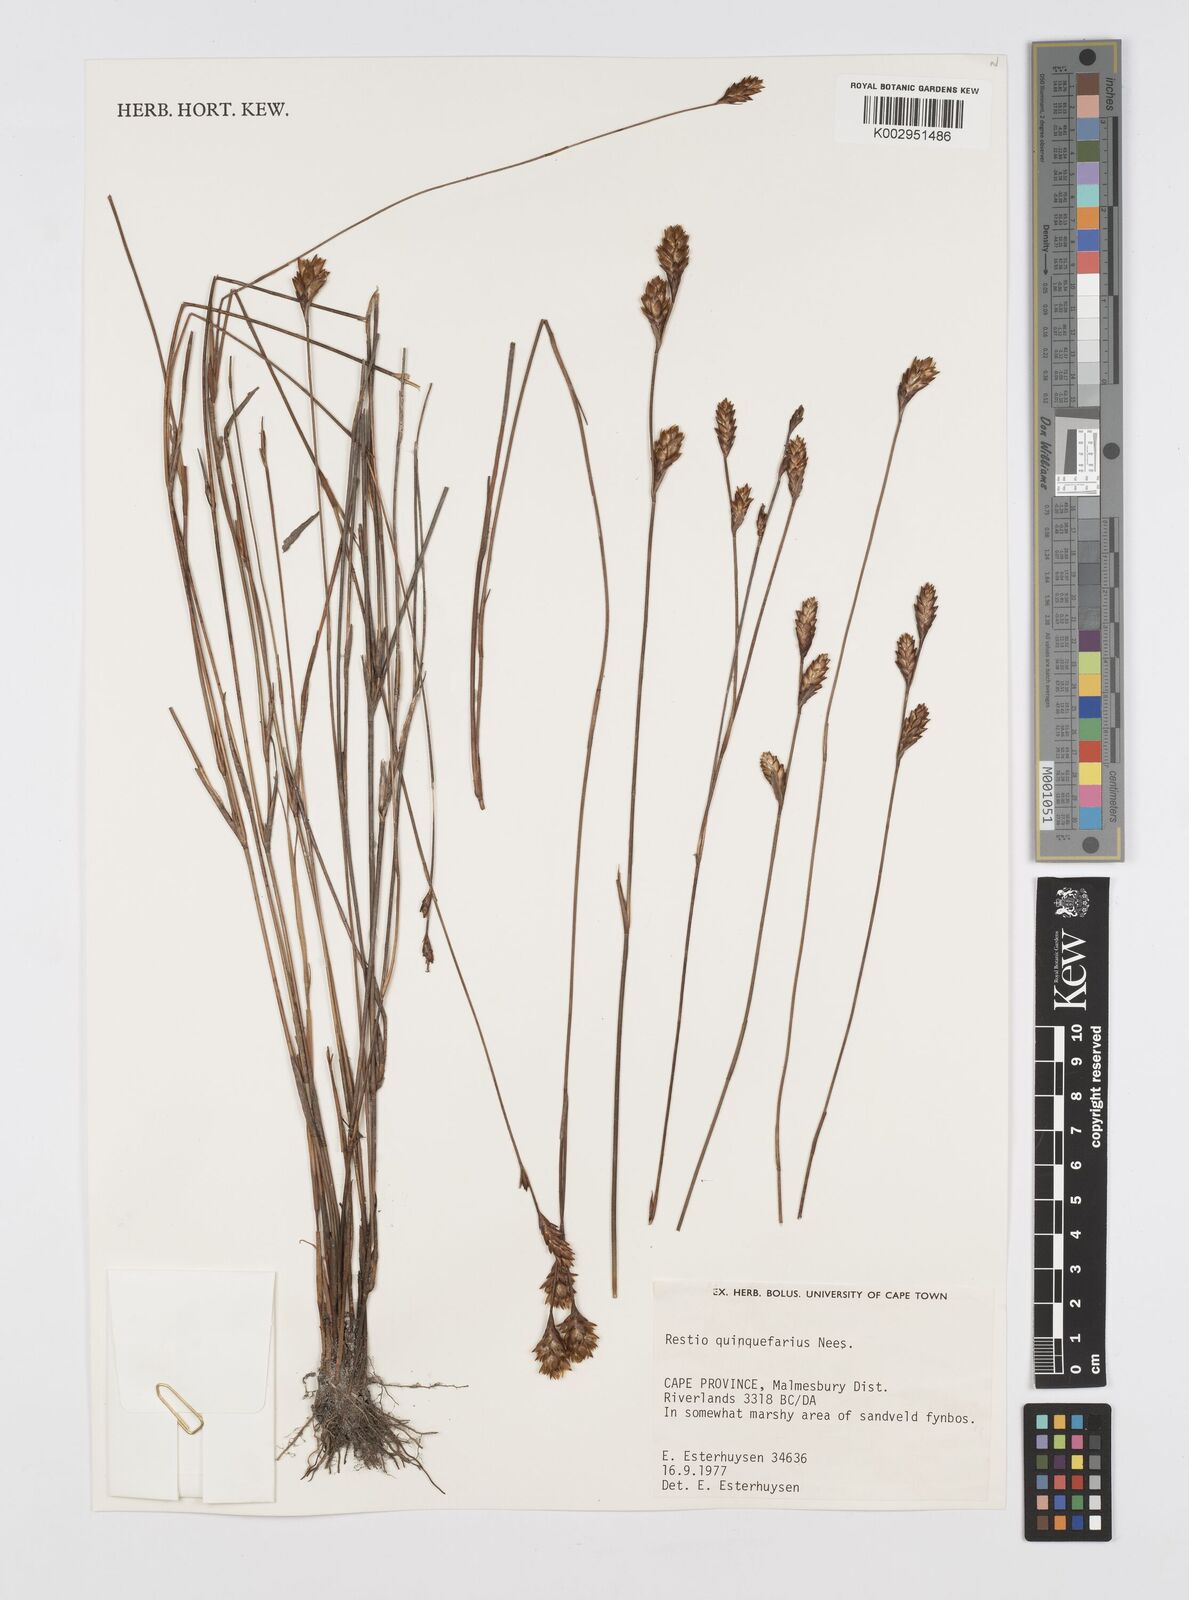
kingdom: Plantae
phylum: Tracheophyta
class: Liliopsida
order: Poales
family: Restionaceae
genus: Restio
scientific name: Restio quinquefarius
